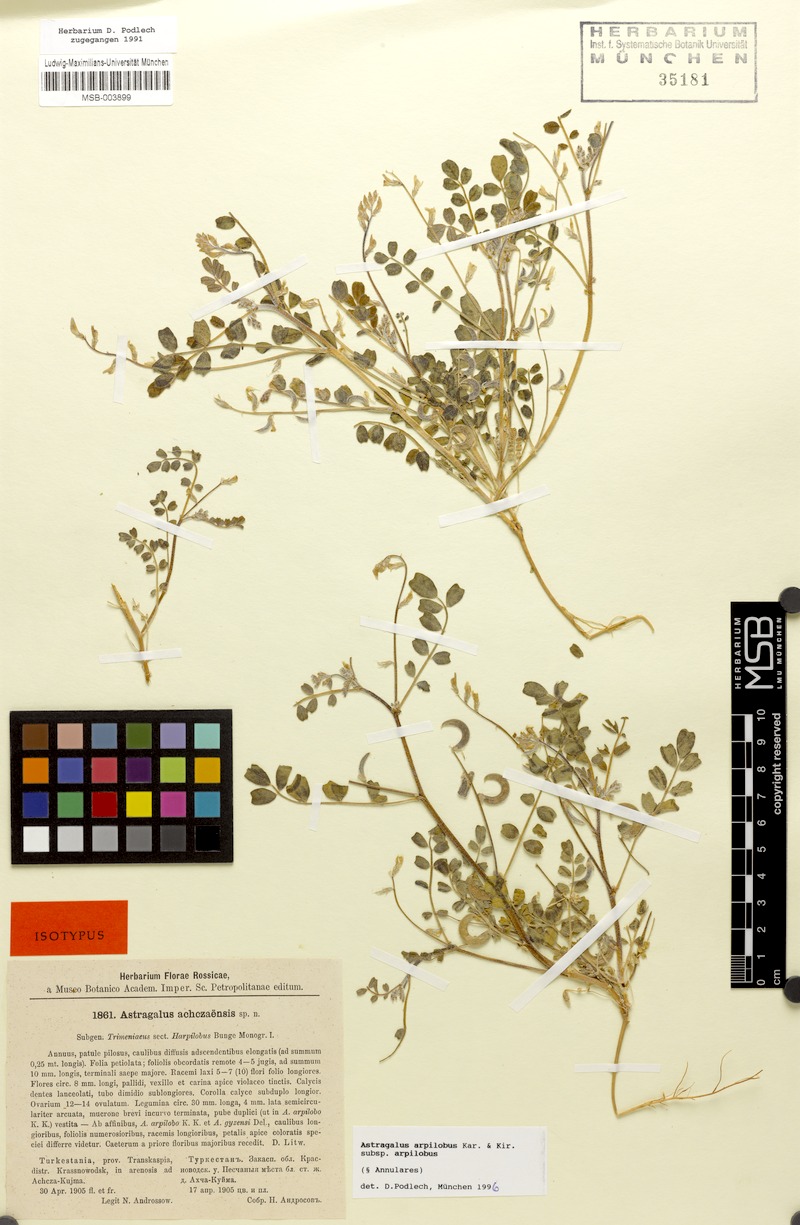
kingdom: Plantae
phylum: Tracheophyta
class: Magnoliopsida
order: Fabales
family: Fabaceae
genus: Astragalus
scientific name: Astragalus arpilobus
